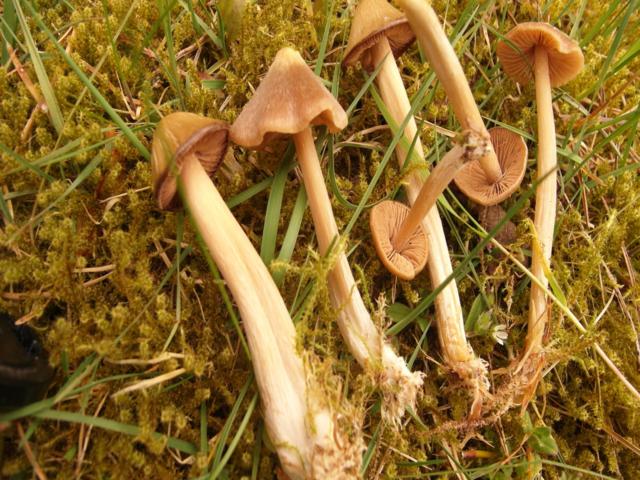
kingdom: Fungi
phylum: Basidiomycota
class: Agaricomycetes
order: Agaricales
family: Entolomataceae
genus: Entoloma
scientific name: Entoloma pallescens
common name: tidlig rødblad
